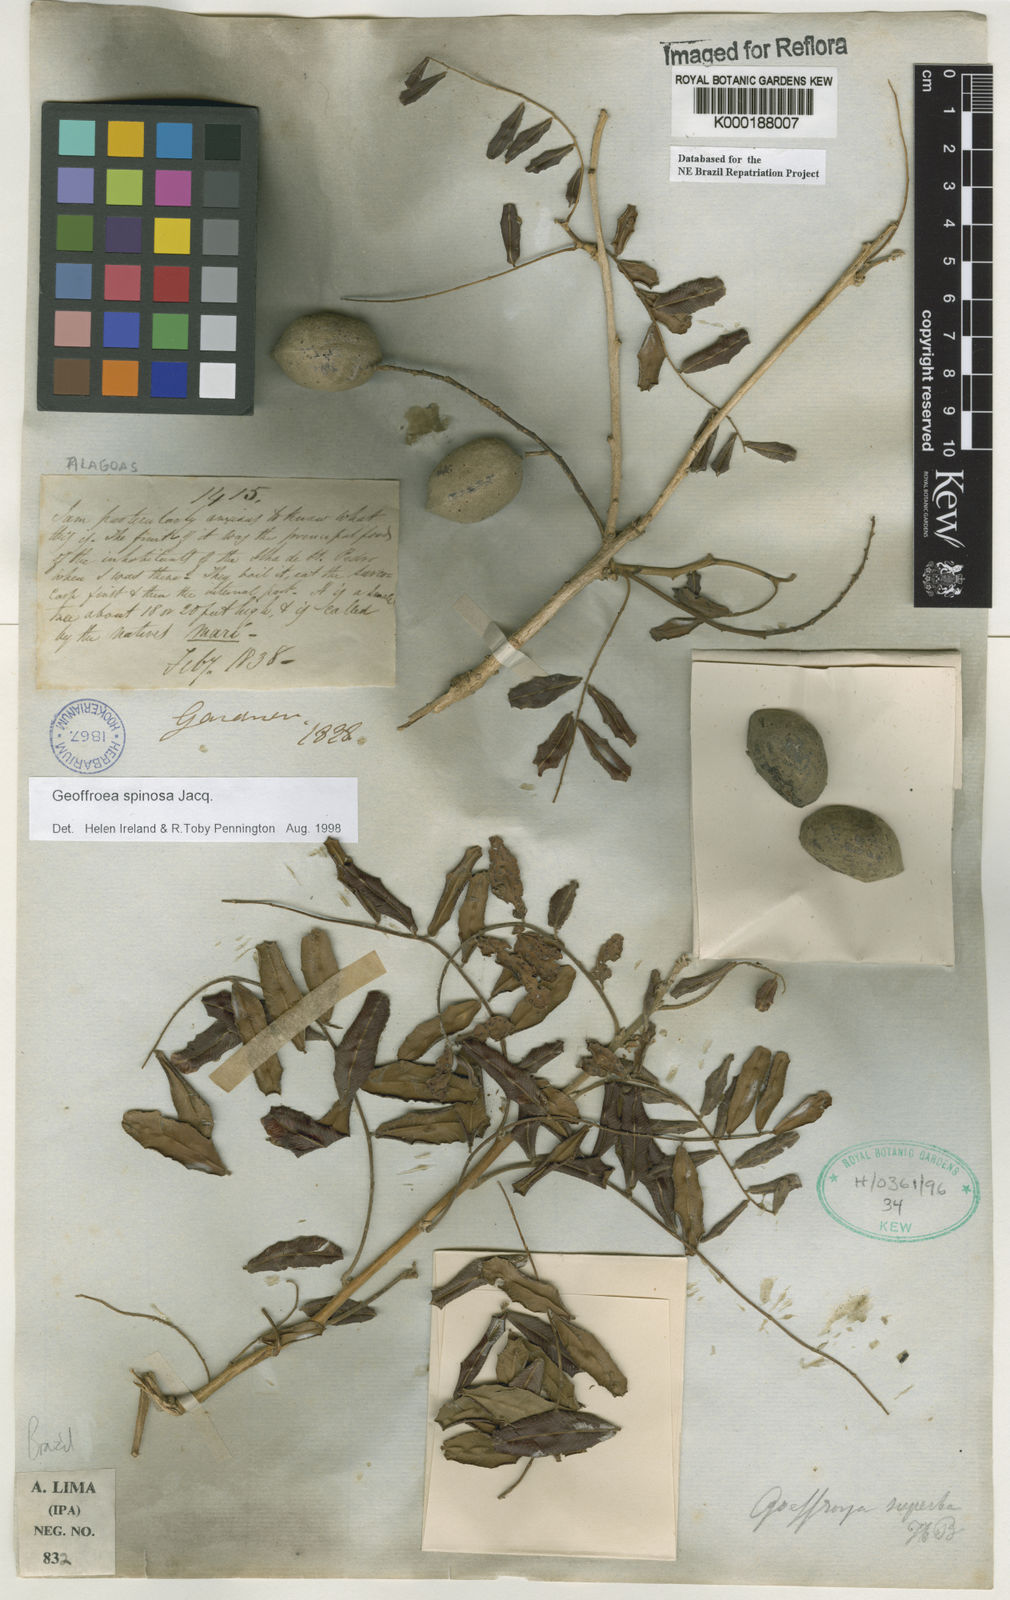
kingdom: Plantae
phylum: Tracheophyta
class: Magnoliopsida
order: Fabales
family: Fabaceae
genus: Geoffroea
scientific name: Geoffroea spinosa
